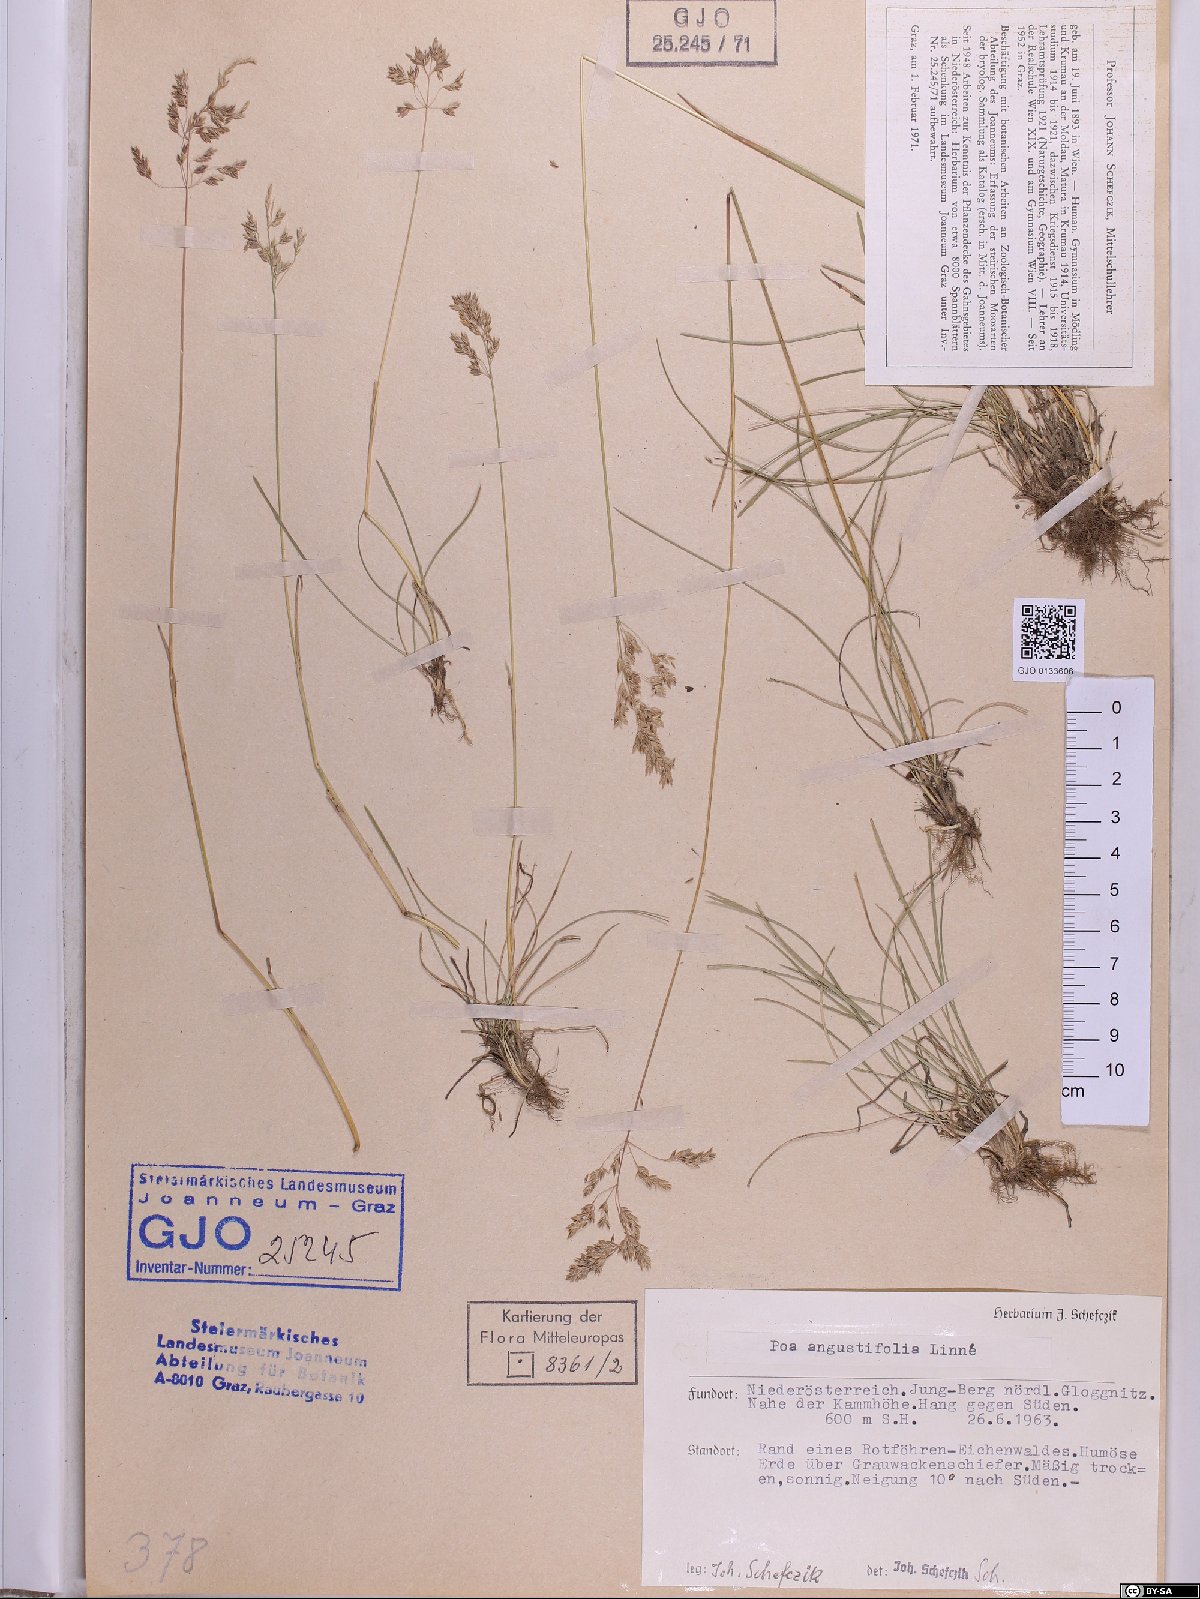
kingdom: Plantae
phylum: Tracheophyta
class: Liliopsida
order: Poales
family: Poaceae
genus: Poa
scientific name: Poa angustifolia
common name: Narrow-leaved meadow-grass
